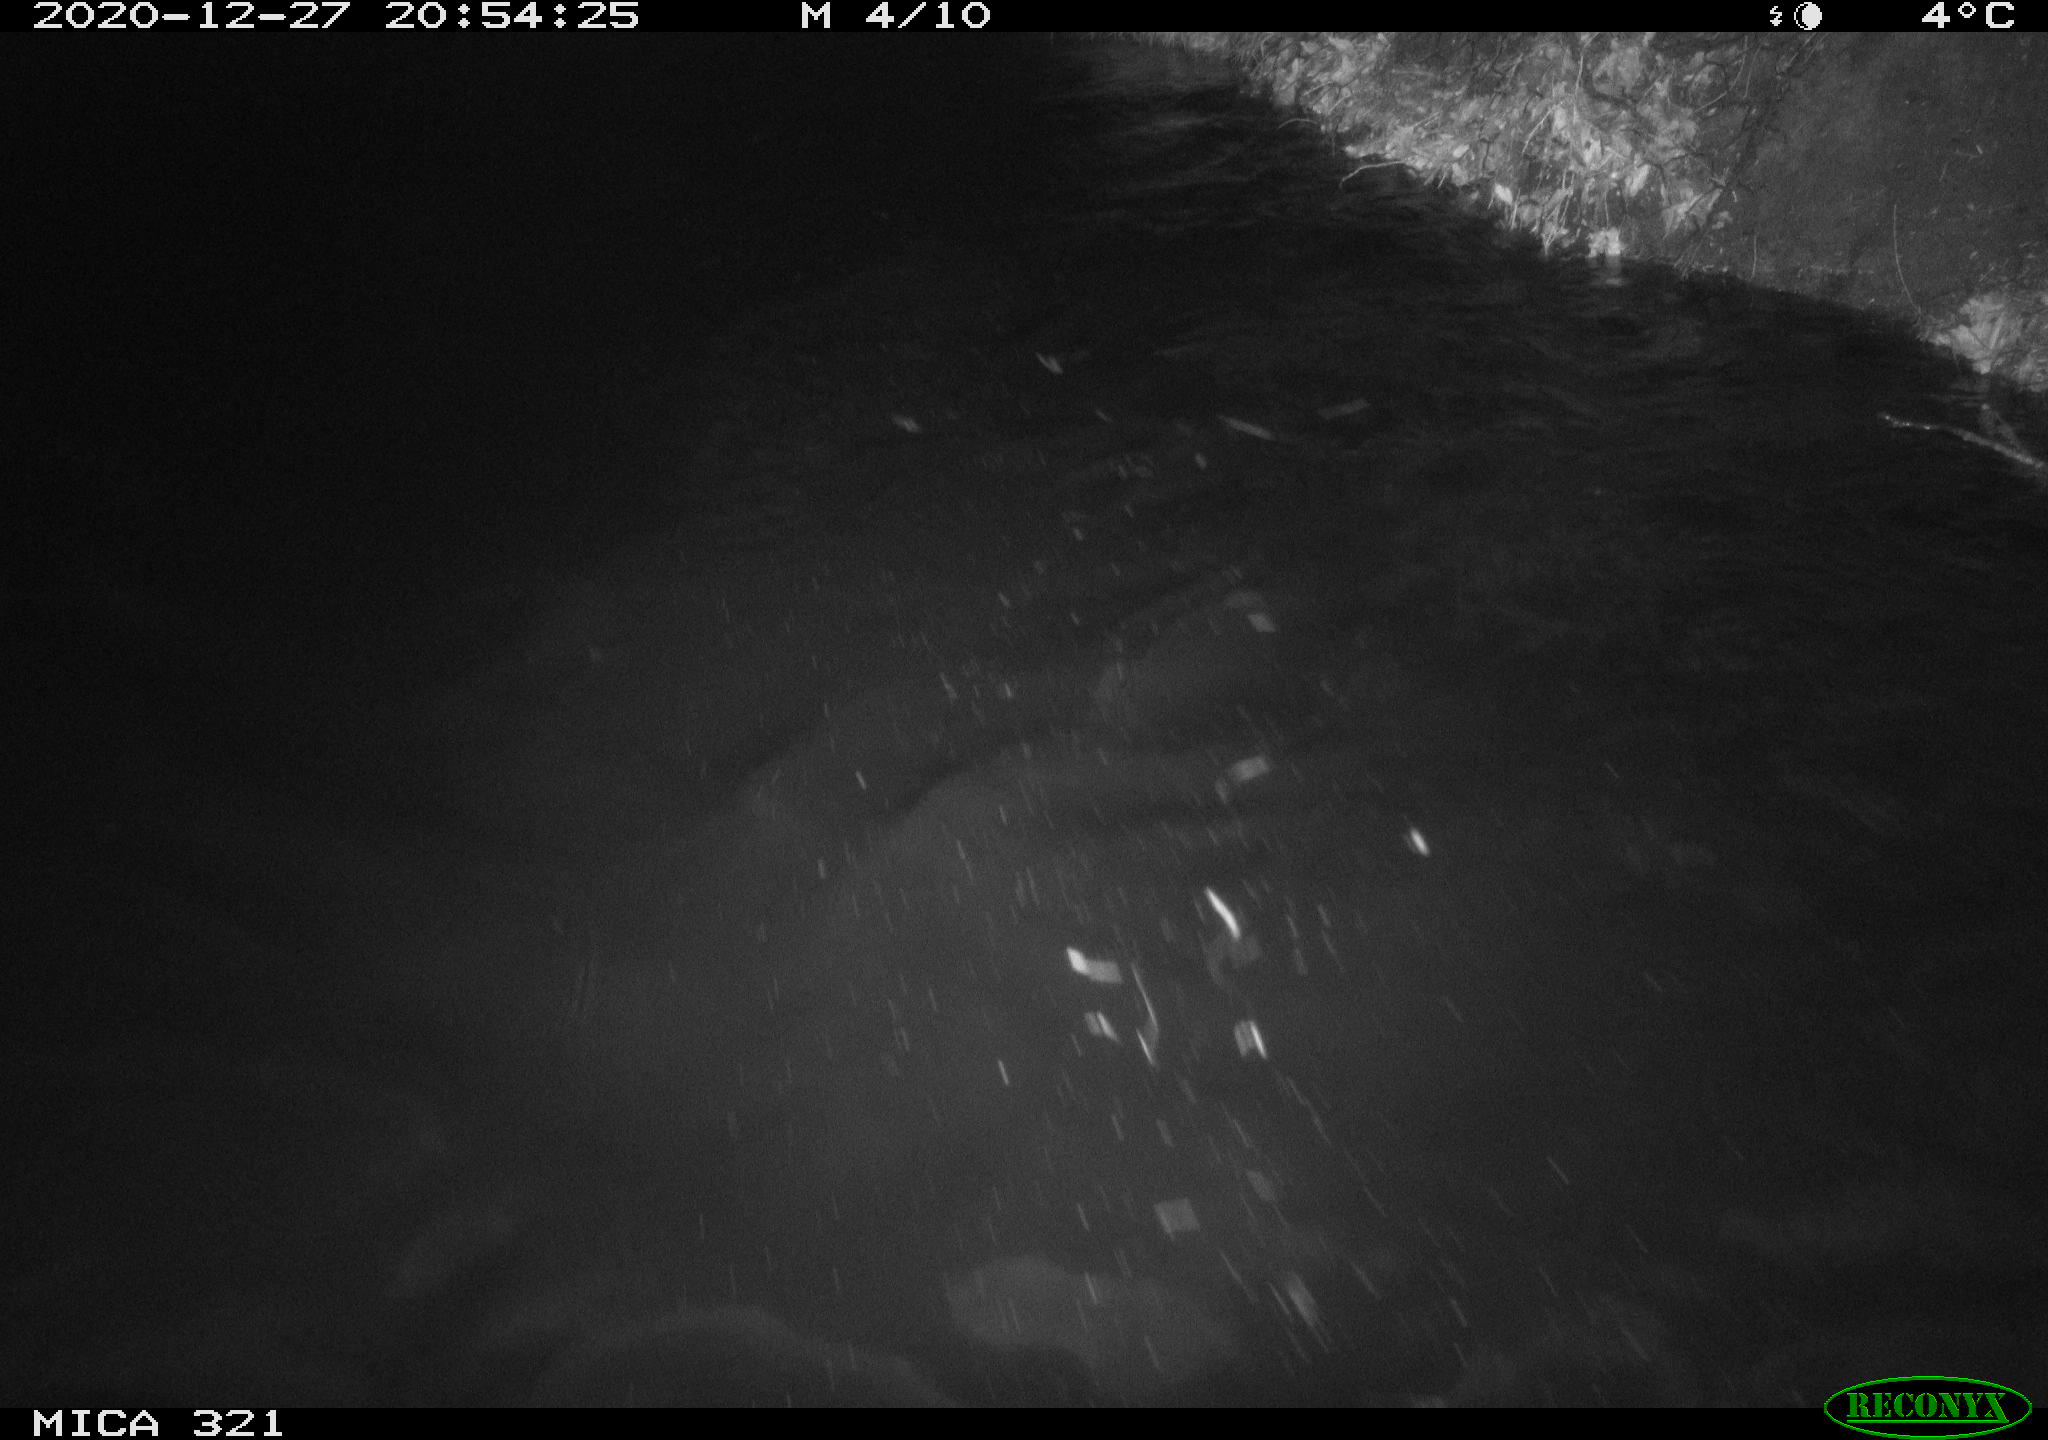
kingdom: Animalia
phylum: Chordata
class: Aves
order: Anseriformes
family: Anatidae
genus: Anas
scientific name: Anas platyrhynchos
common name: Mallard
